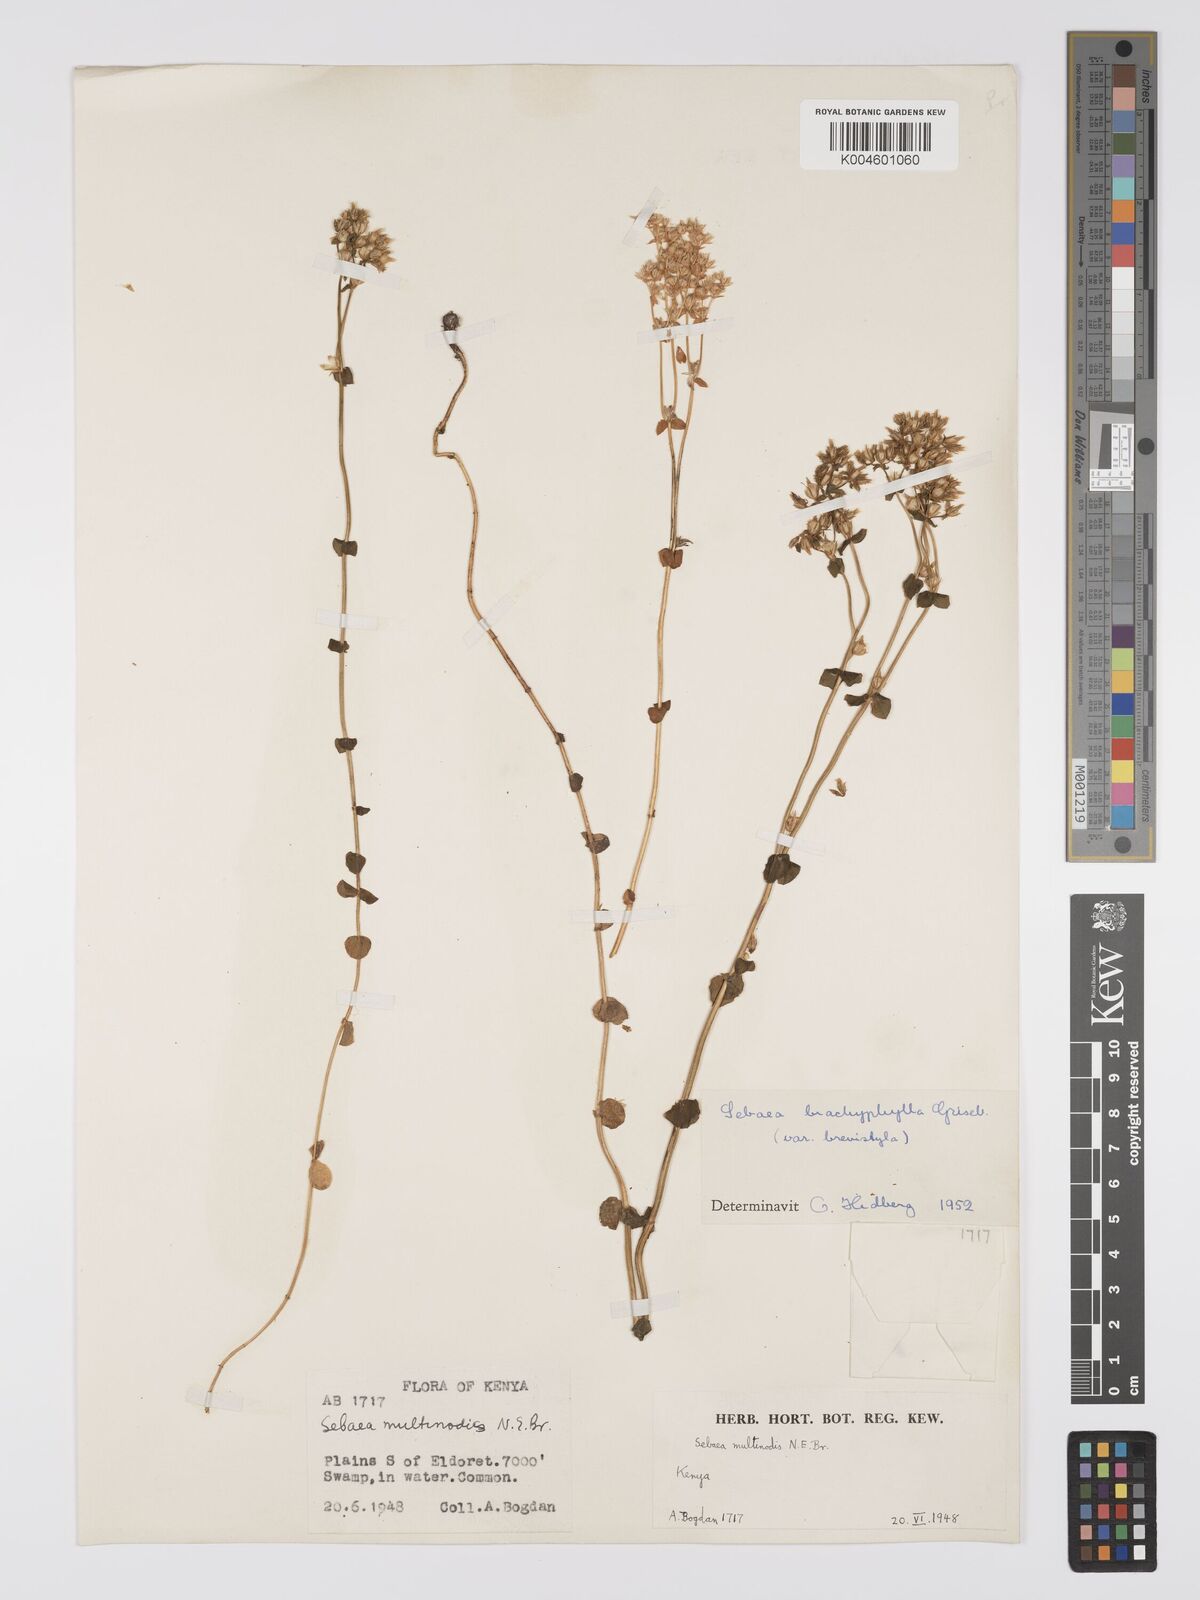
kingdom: Plantae
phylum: Tracheophyta
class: Magnoliopsida
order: Gentianales
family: Gentianaceae
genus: Sebaea
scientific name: Sebaea brachyphylla
